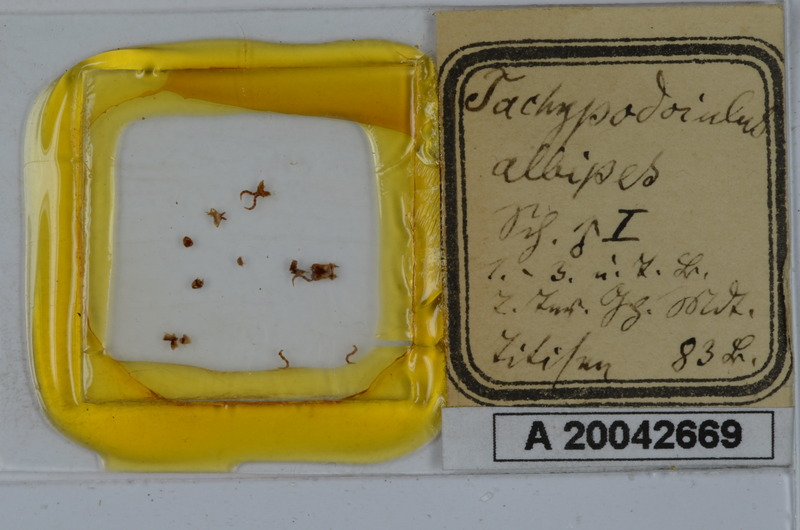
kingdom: Animalia
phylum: Arthropoda
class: Diplopoda
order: Julida
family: Julidae
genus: Tachypodoiulus
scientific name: Tachypodoiulus niger
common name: White-legged snake millipede
